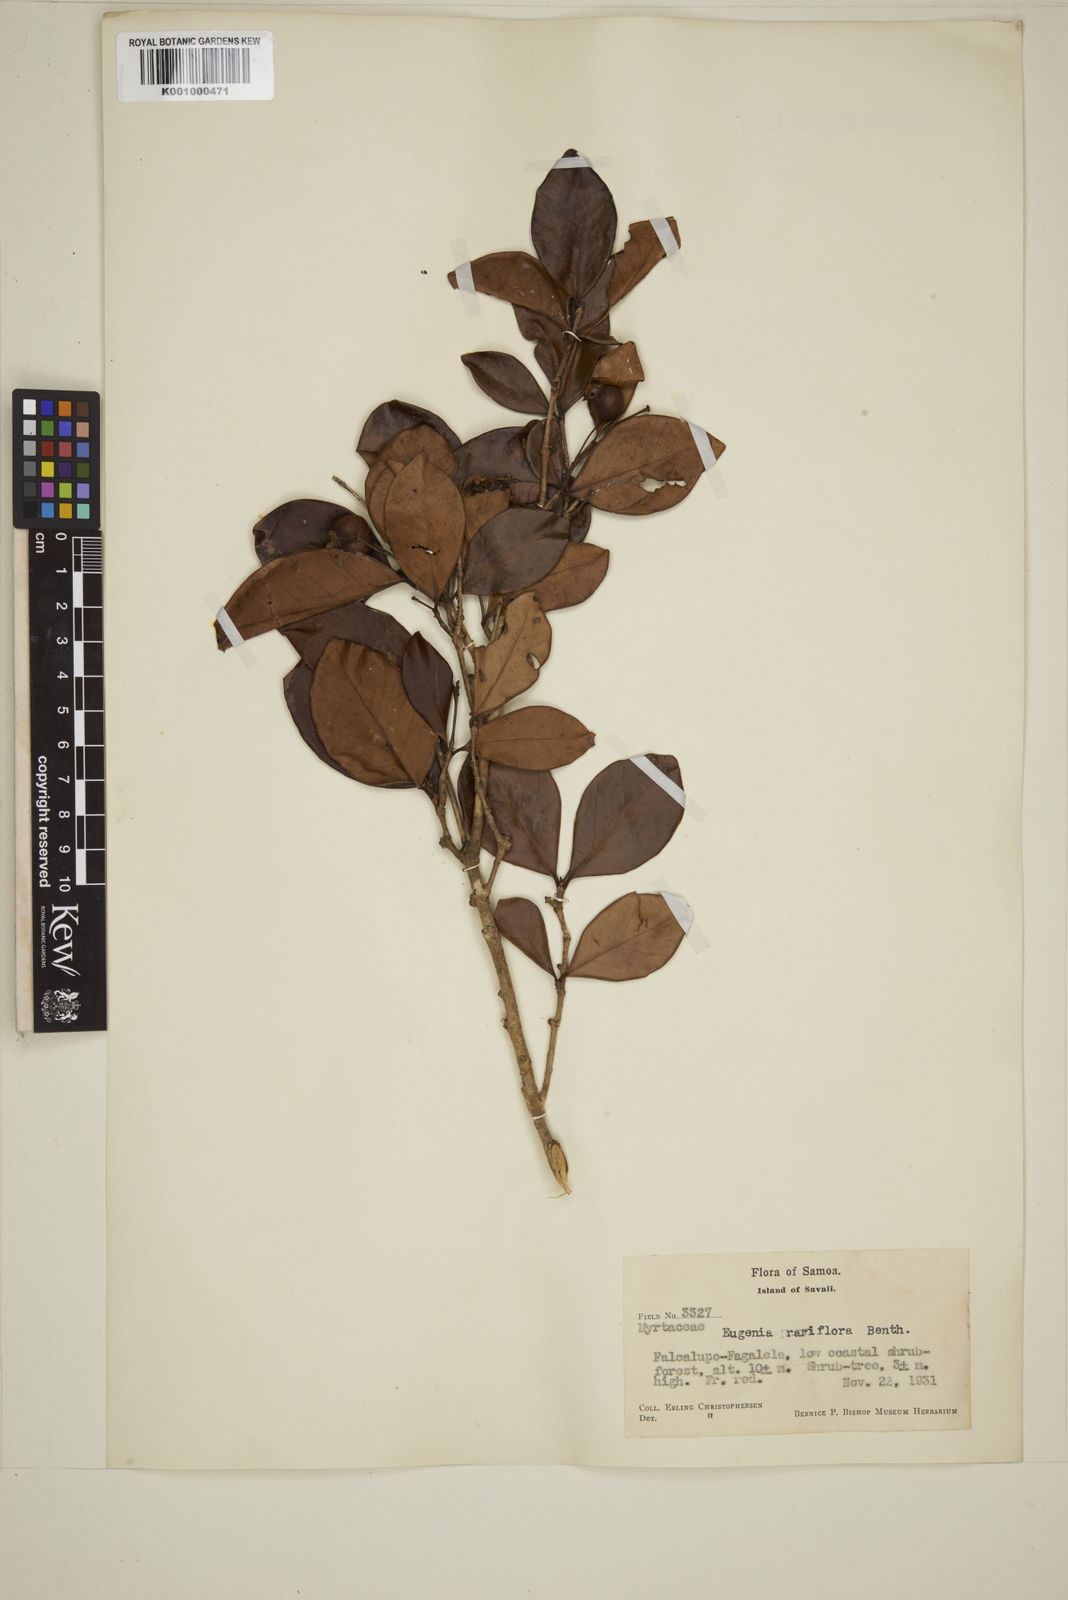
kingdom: Plantae
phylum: Tracheophyta
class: Magnoliopsida
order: Myrtales
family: Myrtaceae
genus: Eugenia
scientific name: Eugenia reinwardtiana
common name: Cedar bay-cherry
